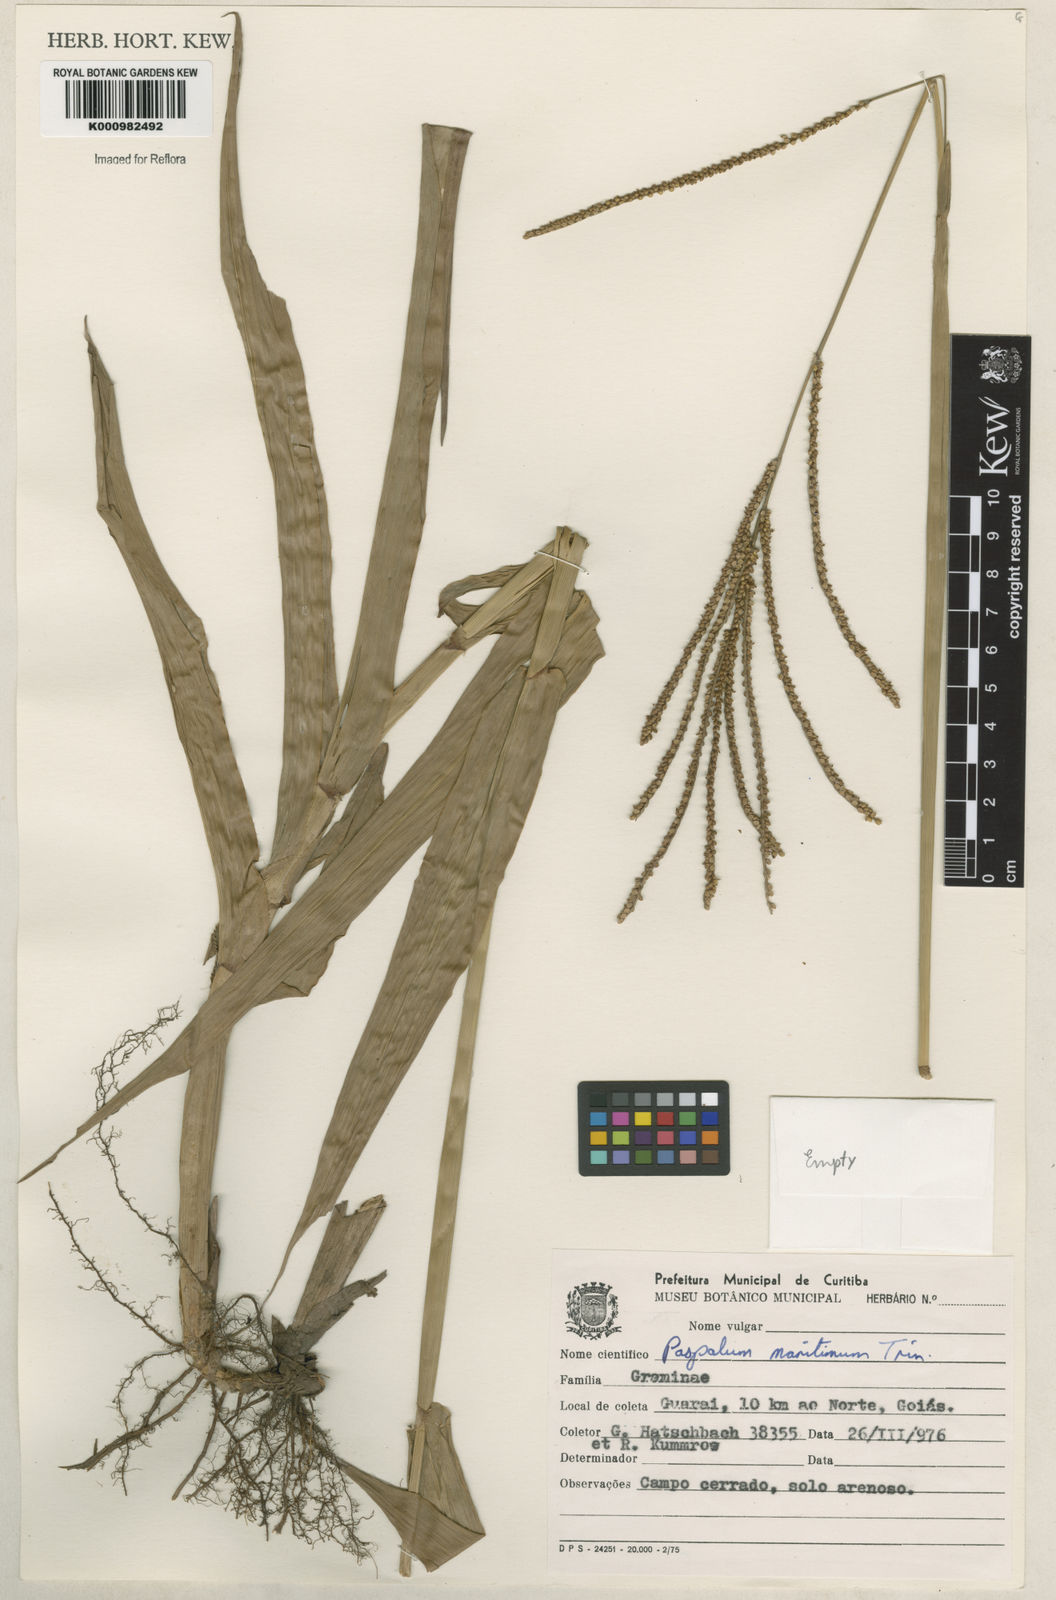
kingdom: Plantae
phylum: Tracheophyta
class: Liliopsida
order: Poales
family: Poaceae
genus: Paspalum
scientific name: Paspalum maritimum
